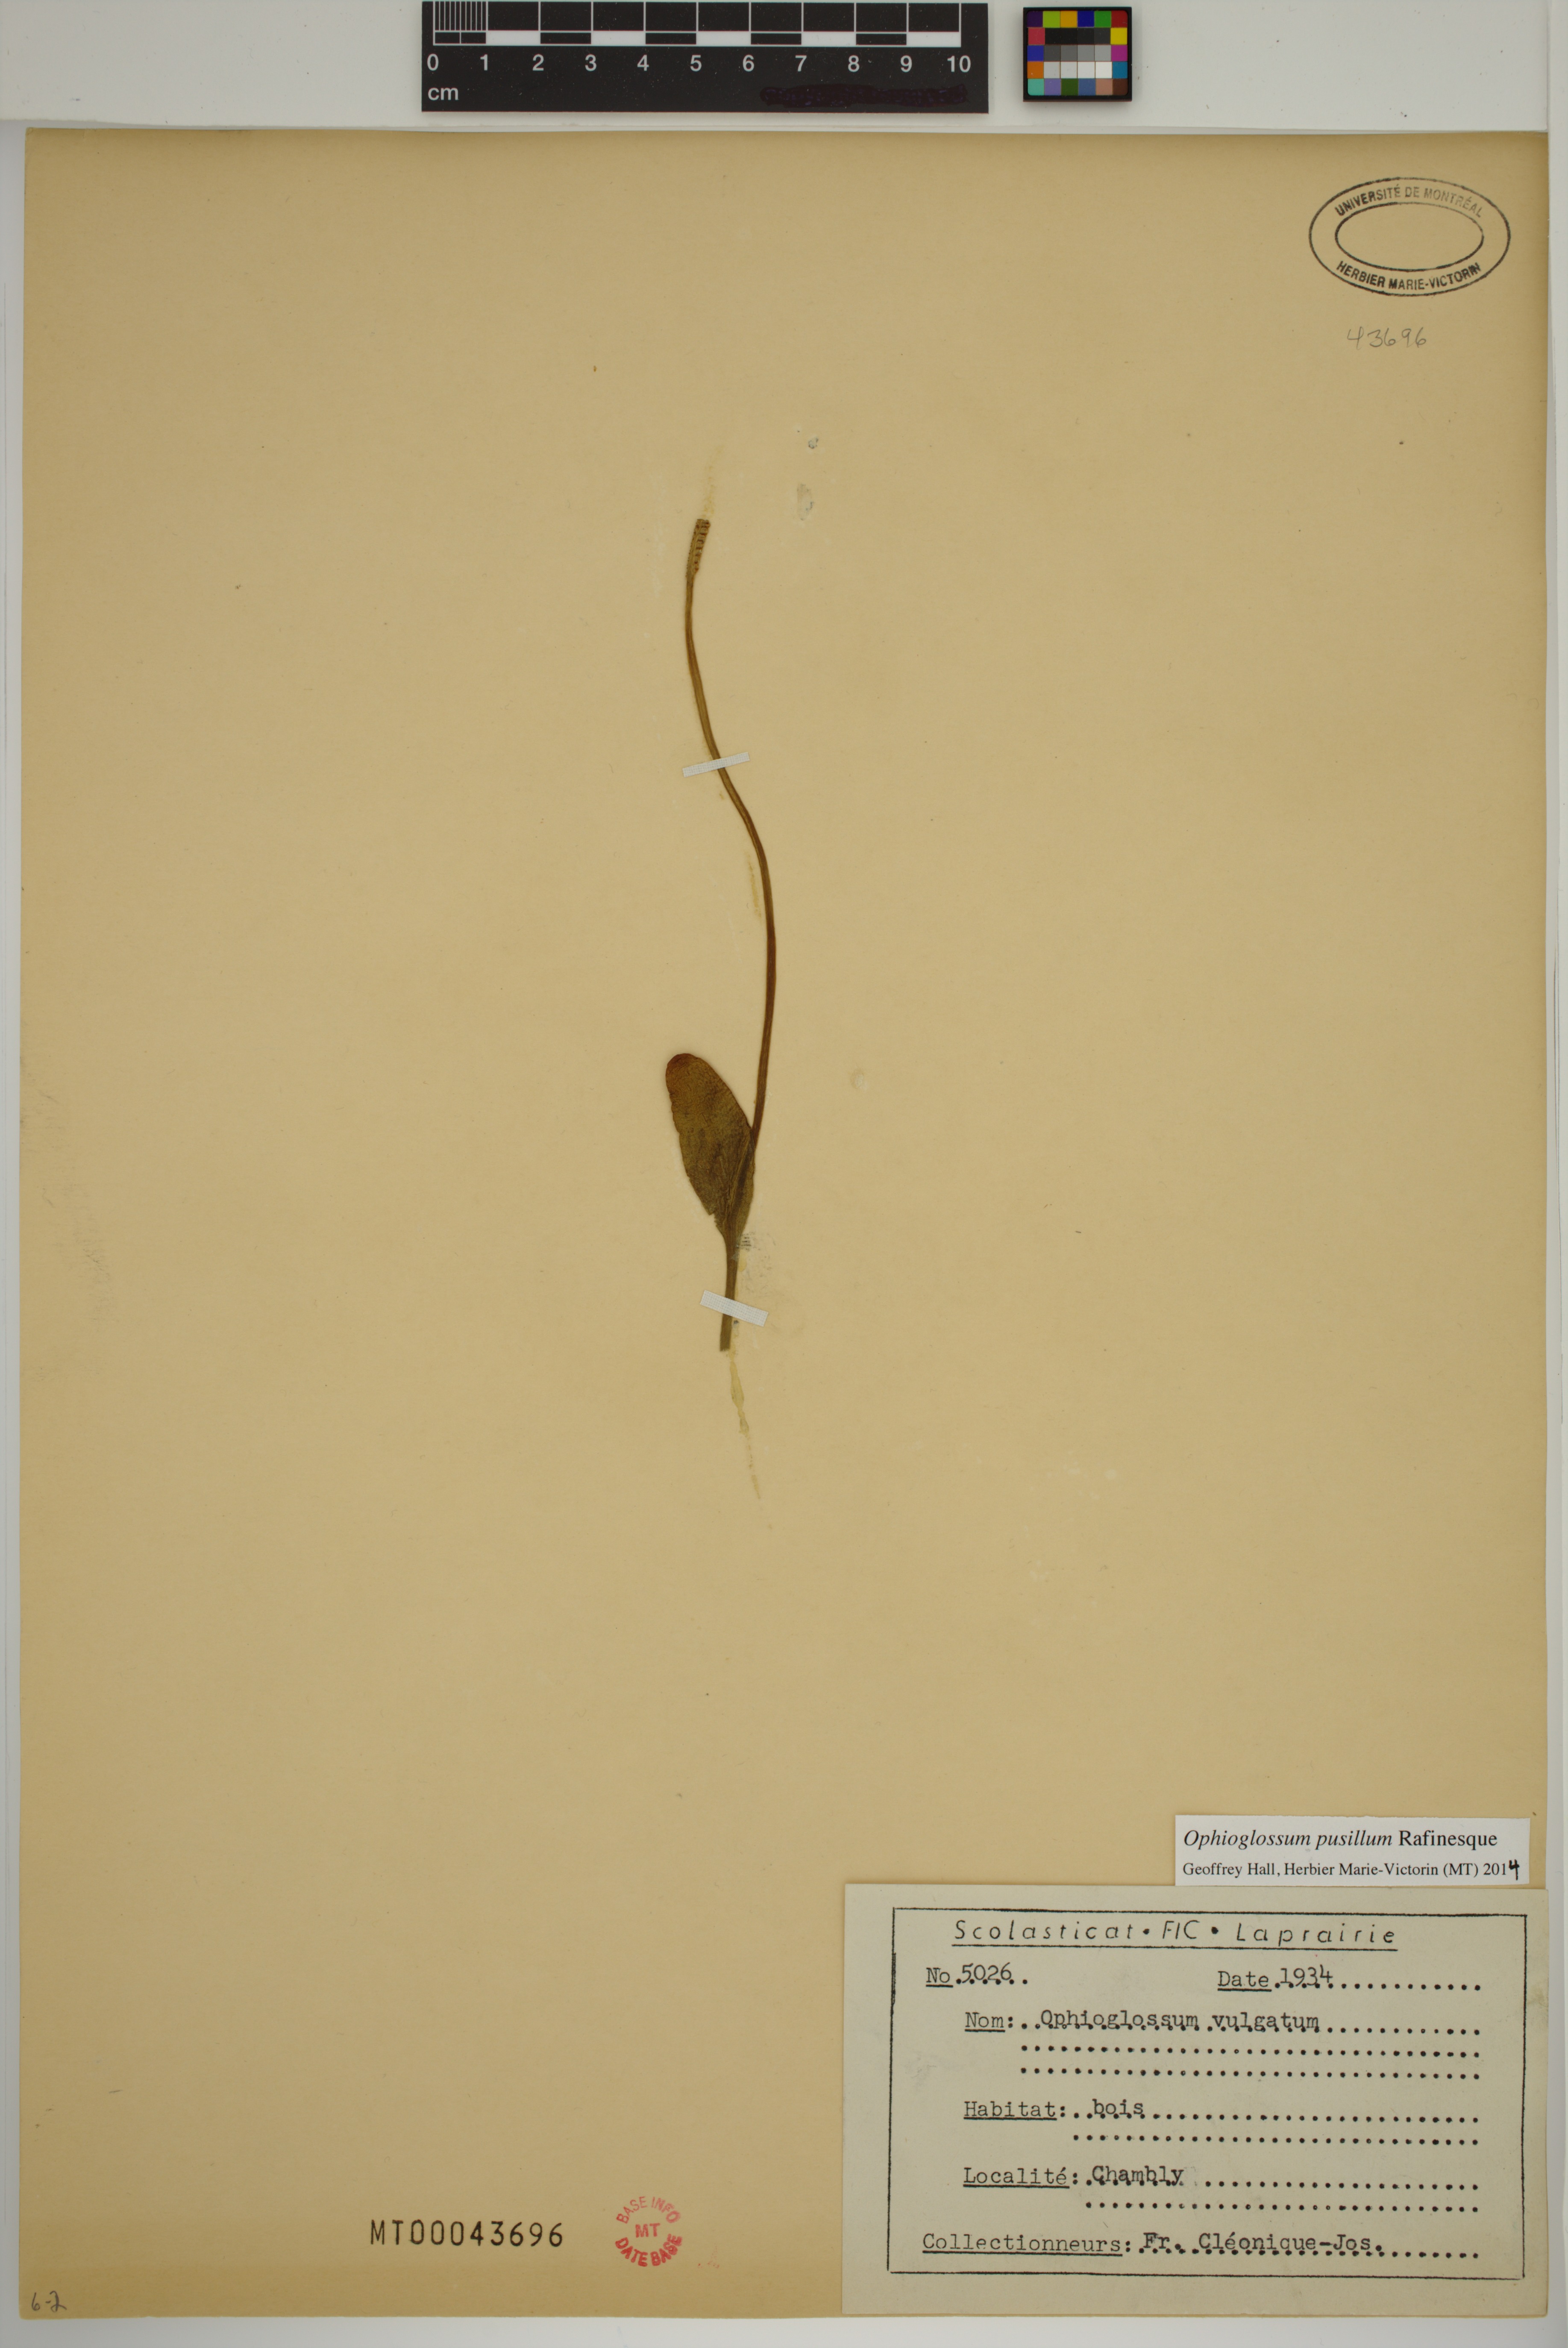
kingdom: Plantae
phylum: Tracheophyta
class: Polypodiopsida
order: Ophioglossales
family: Ophioglossaceae
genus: Ophioglossum
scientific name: Ophioglossum pusillum
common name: Northern adder's-tongue
